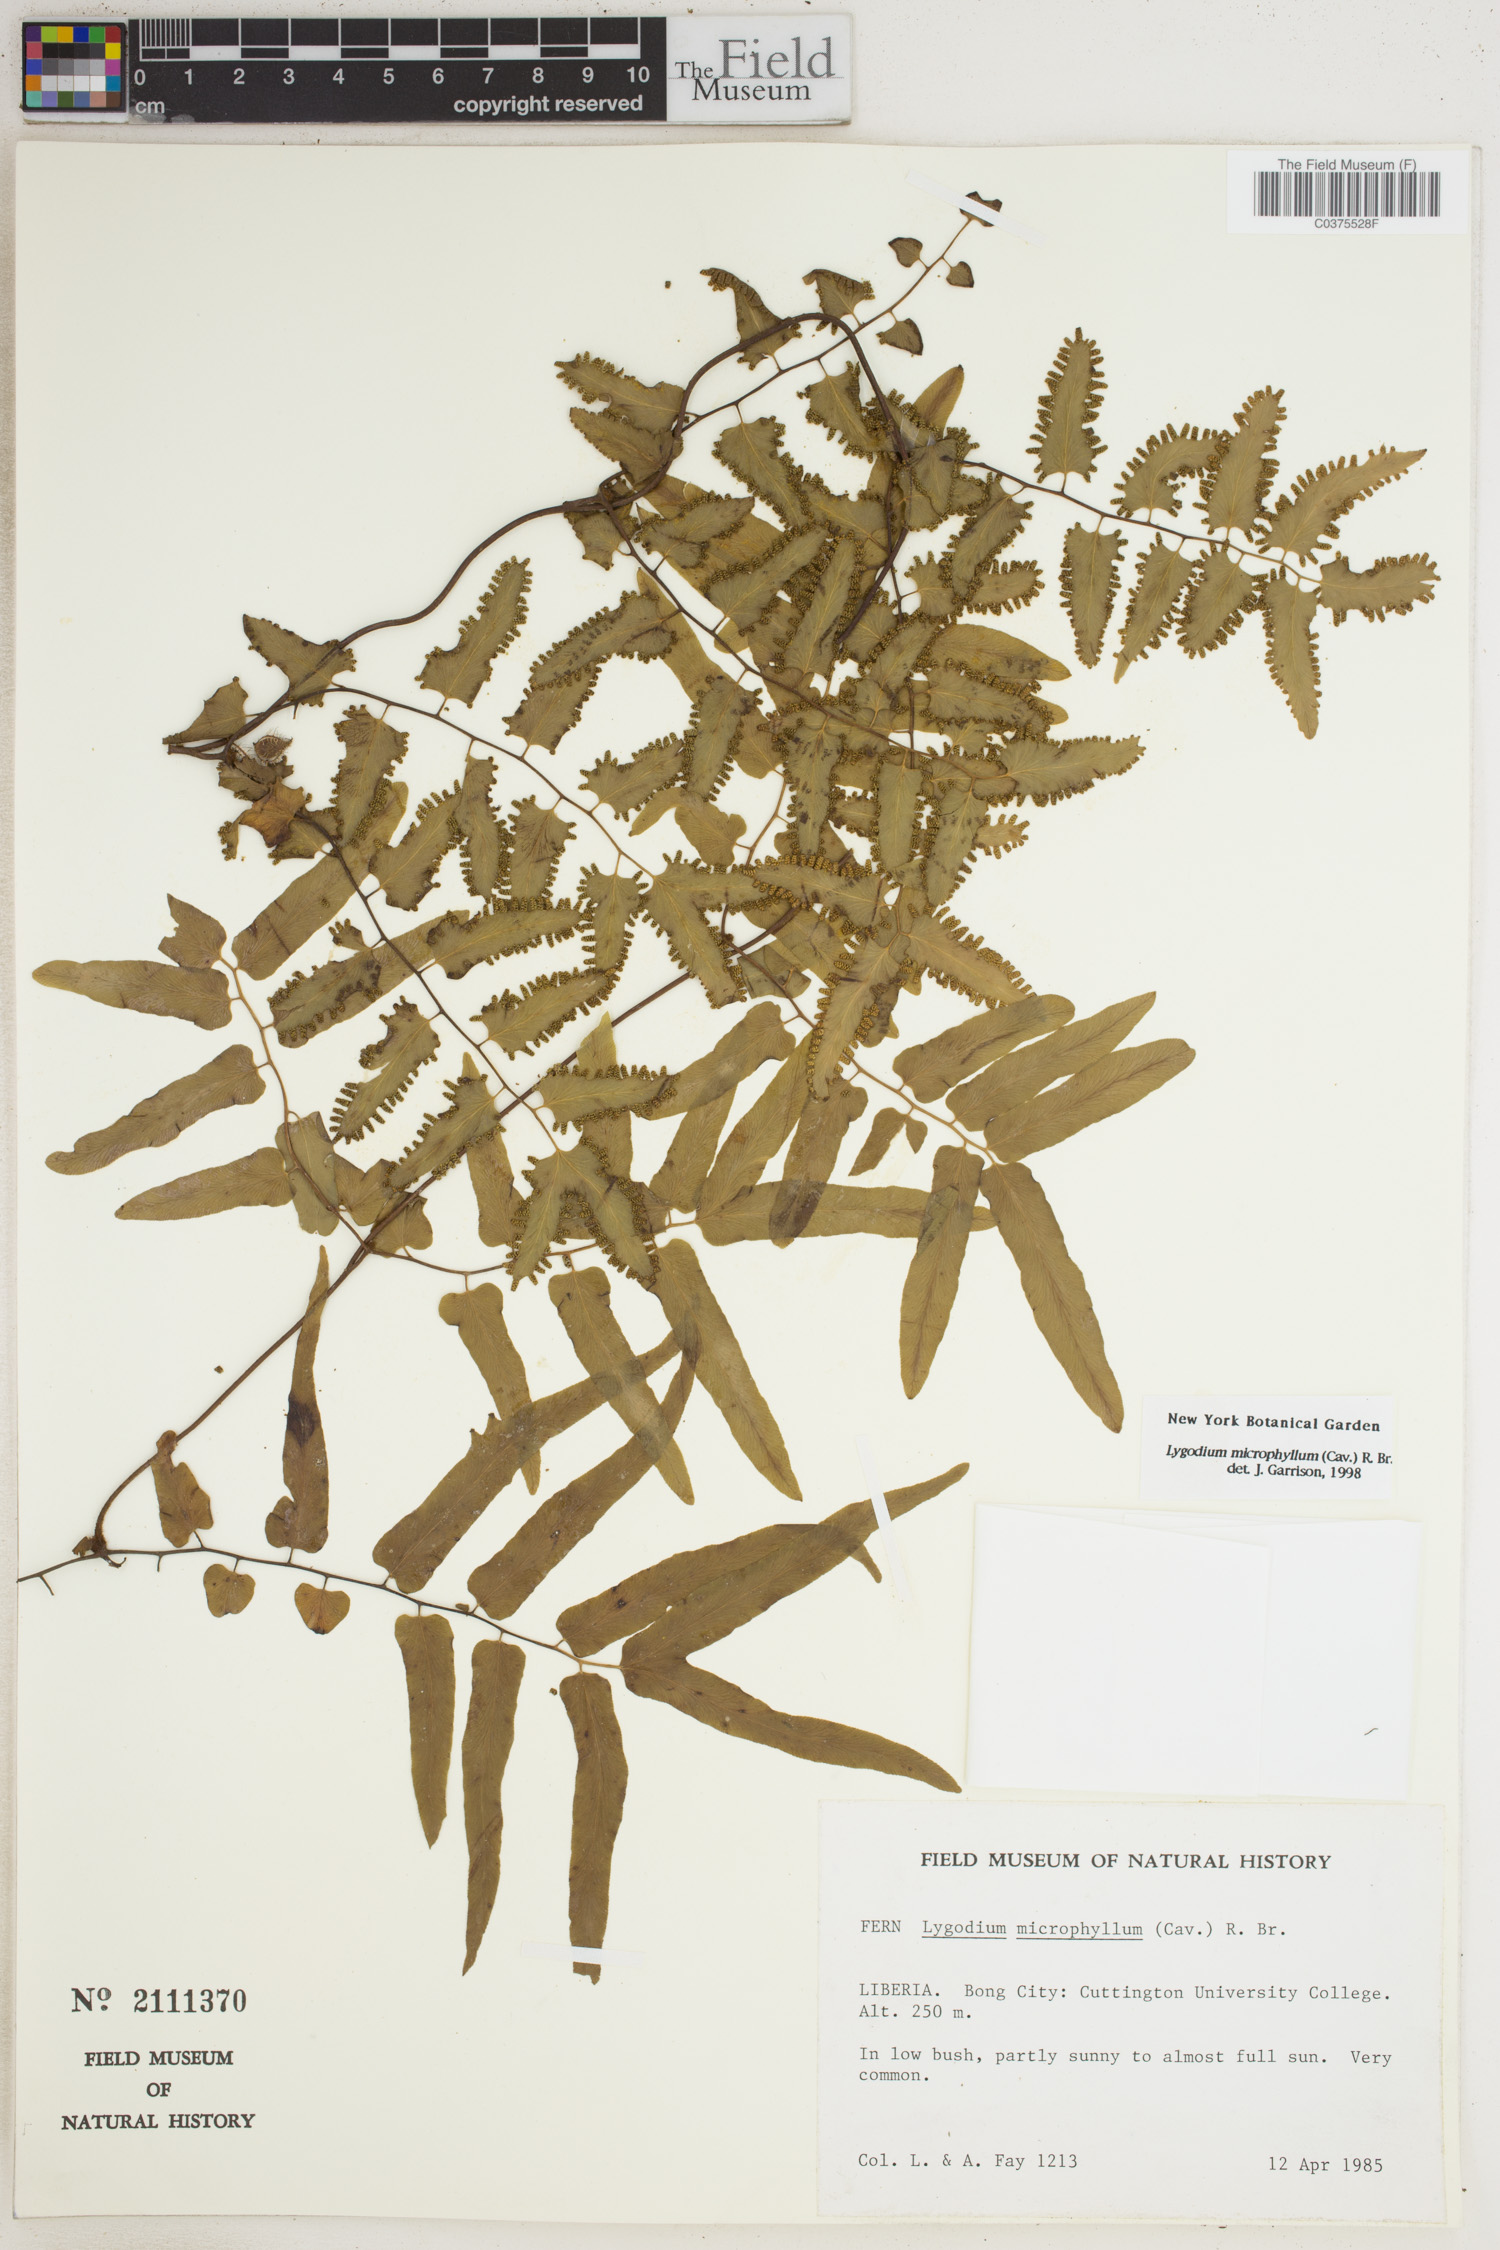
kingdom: Plantae
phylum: Tracheophyta
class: Polypodiopsida
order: Schizaeales
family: Lygodiaceae
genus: Lygodium
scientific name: Lygodium microphyllum
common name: Small-leaf climbing fern
